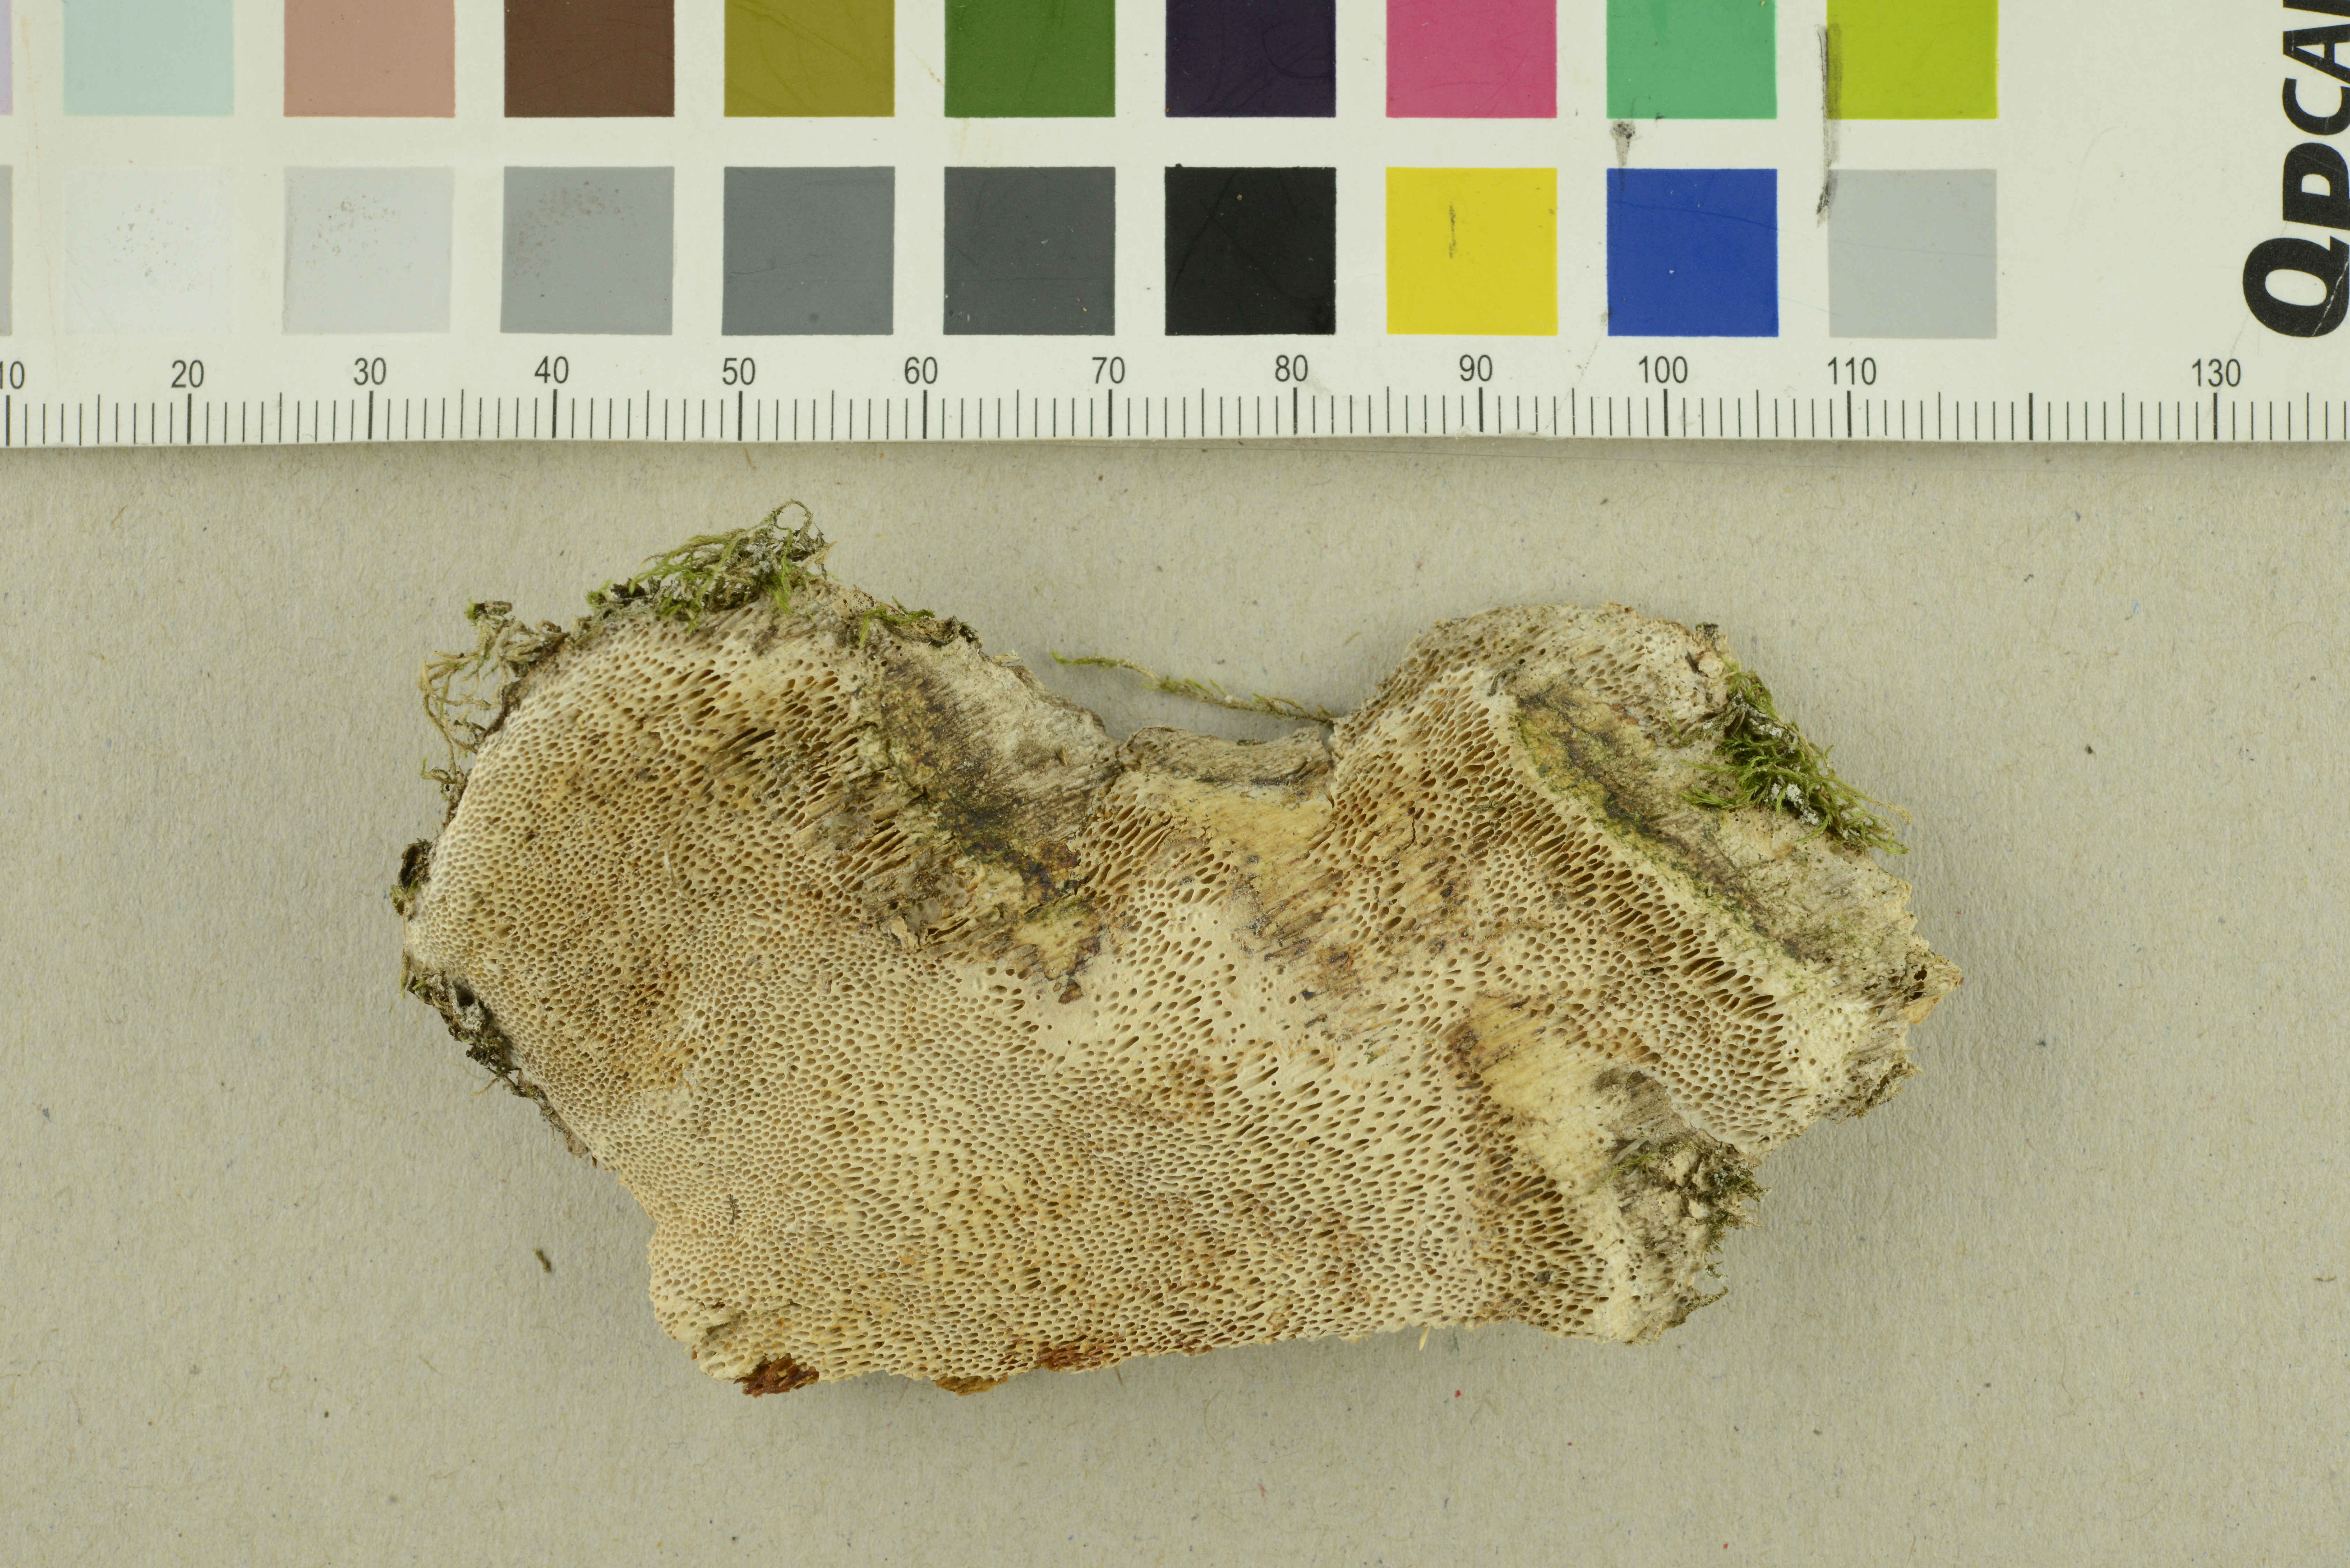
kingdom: Fungi
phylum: Basidiomycota
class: Agaricomycetes
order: Polyporales
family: Polyporaceae
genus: Pachykytospora
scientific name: Pachykytospora tuberculosa
